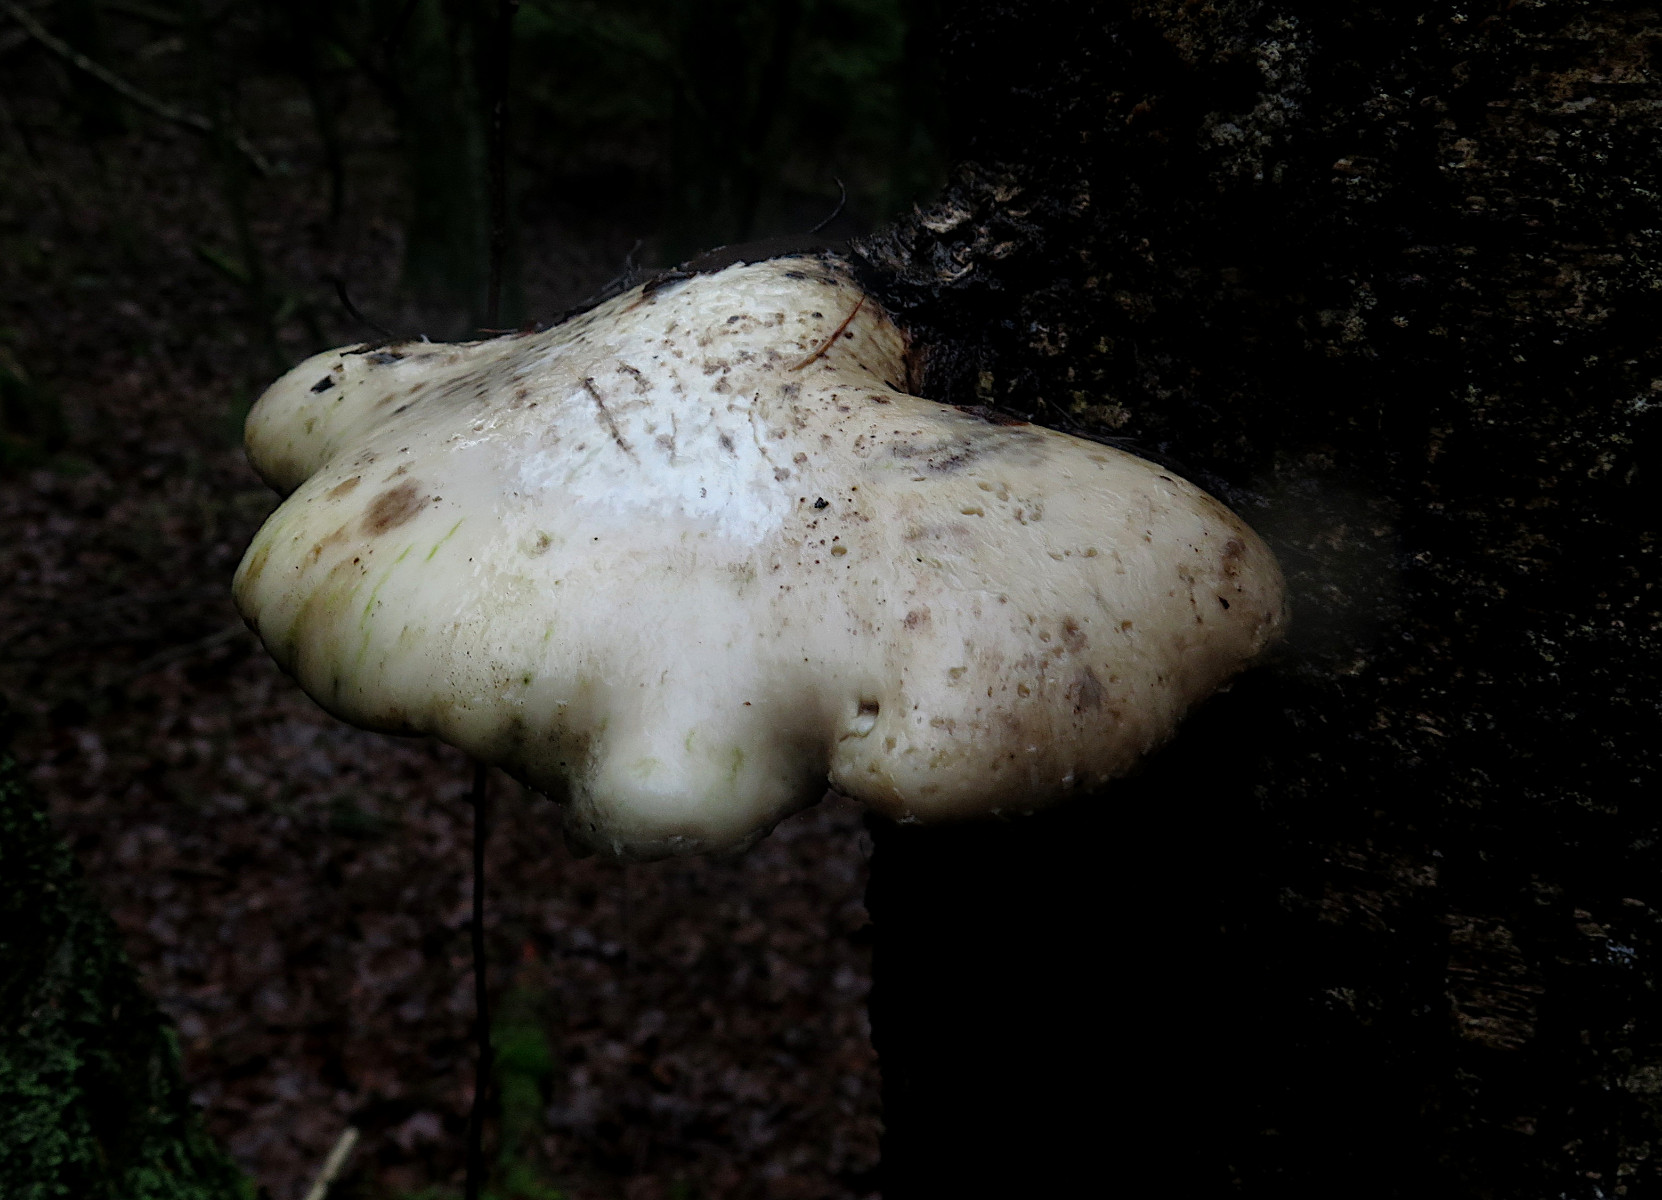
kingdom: Fungi
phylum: Basidiomycota
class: Agaricomycetes
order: Polyporales
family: Fomitopsidaceae
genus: Fomitopsis
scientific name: Fomitopsis betulina
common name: birkeporesvamp
